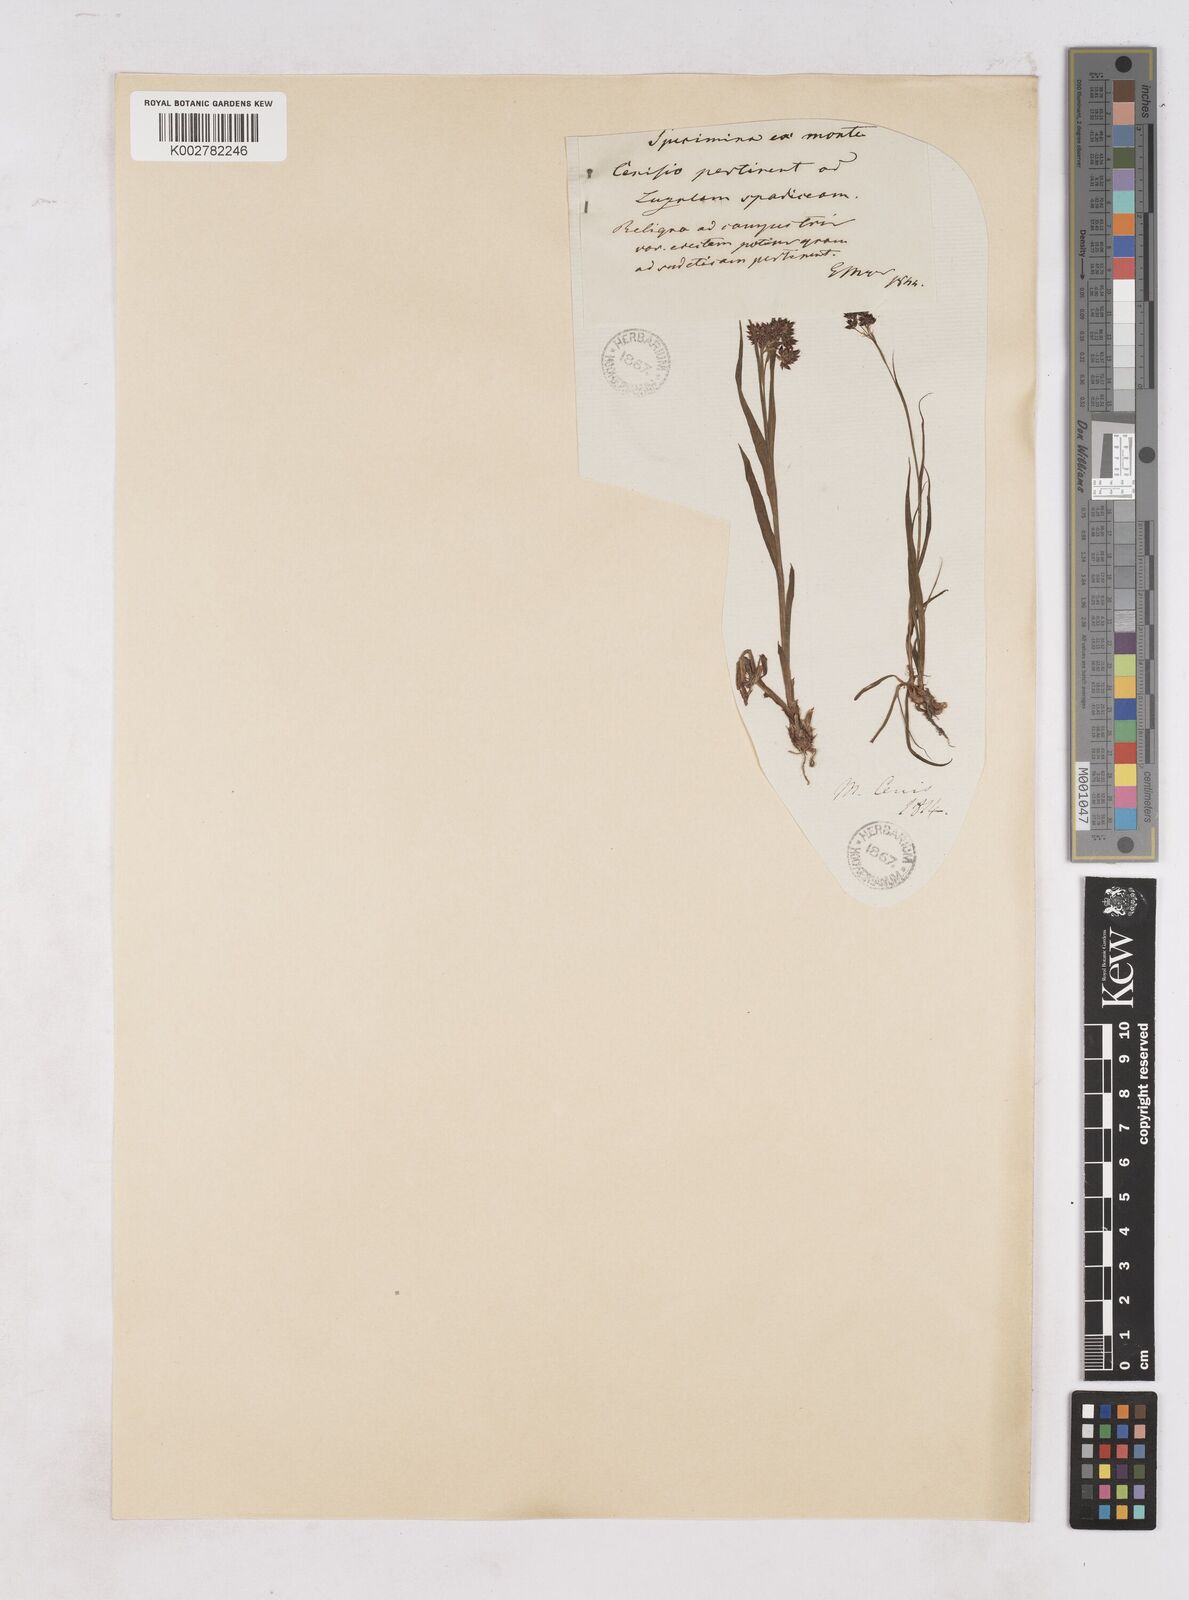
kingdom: Plantae
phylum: Tracheophyta
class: Liliopsida
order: Poales
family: Juncaceae
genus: Luzula
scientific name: Luzula alpinopilosa
